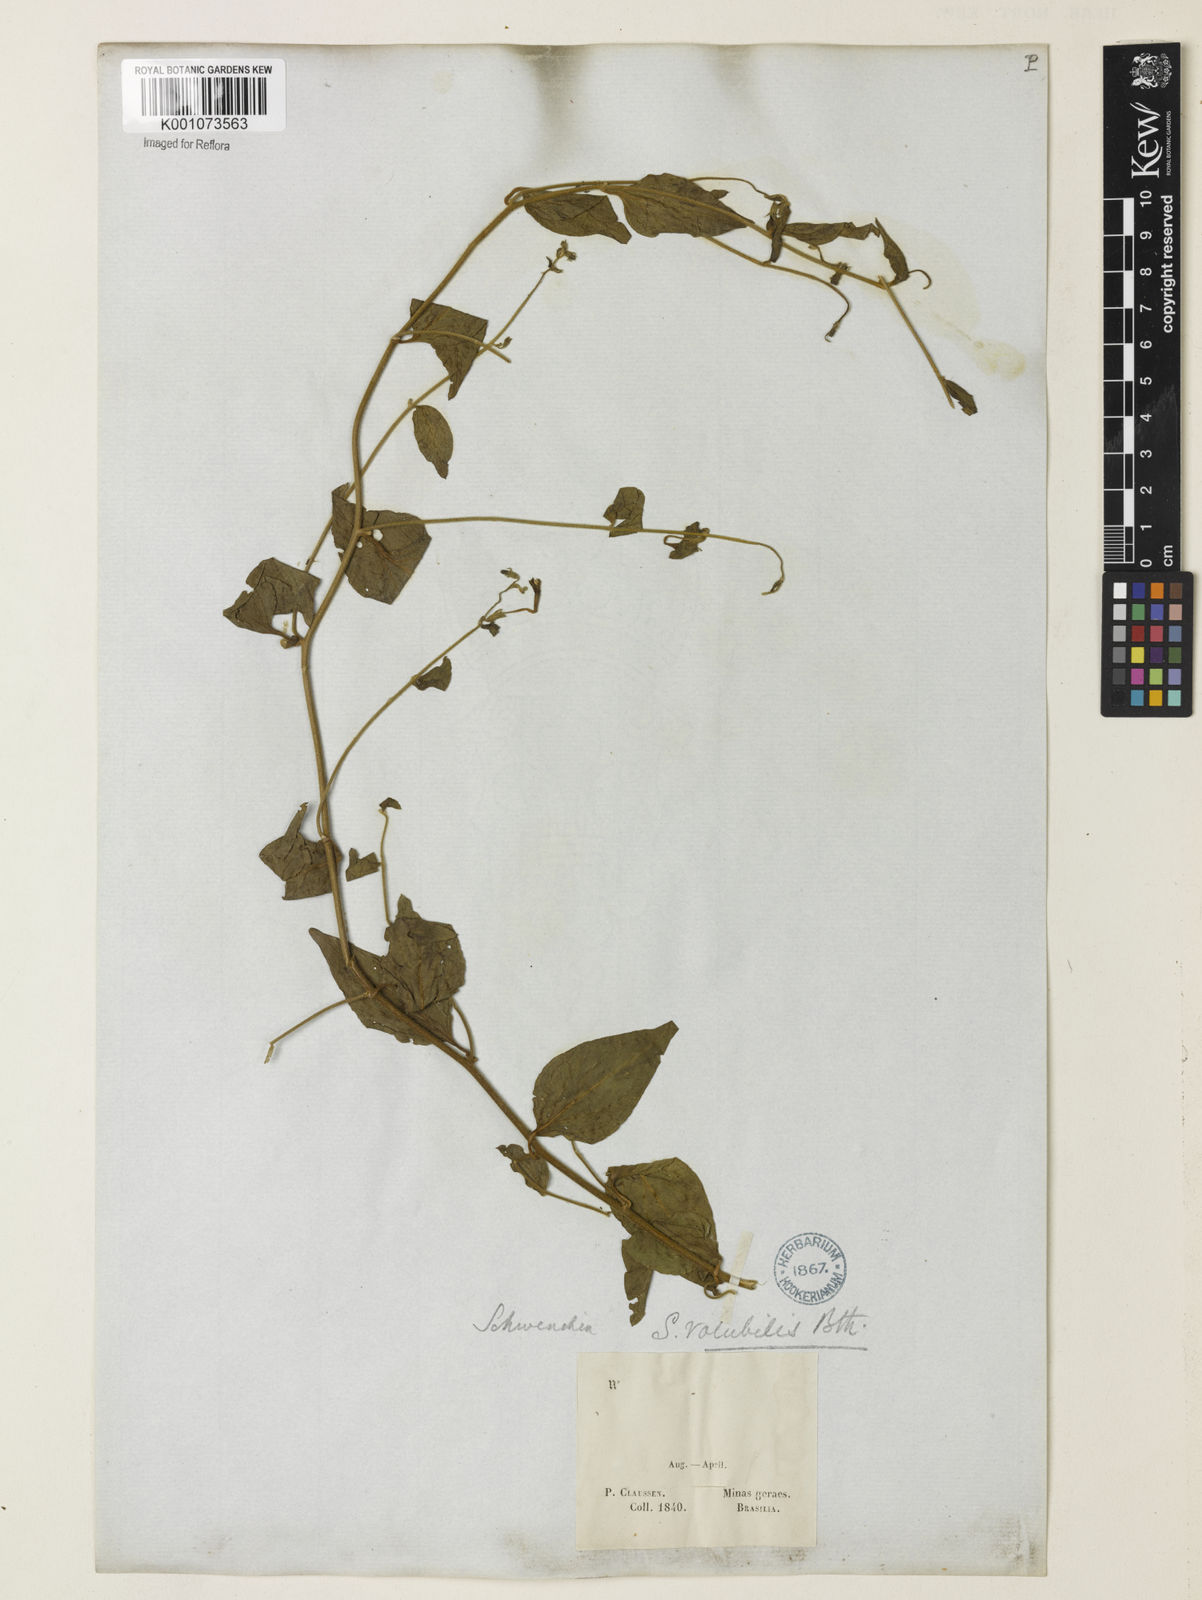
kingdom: Plantae
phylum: Tracheophyta
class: Magnoliopsida
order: Solanales
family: Solanaceae
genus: Schwenckia
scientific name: Schwenckia volubilis
